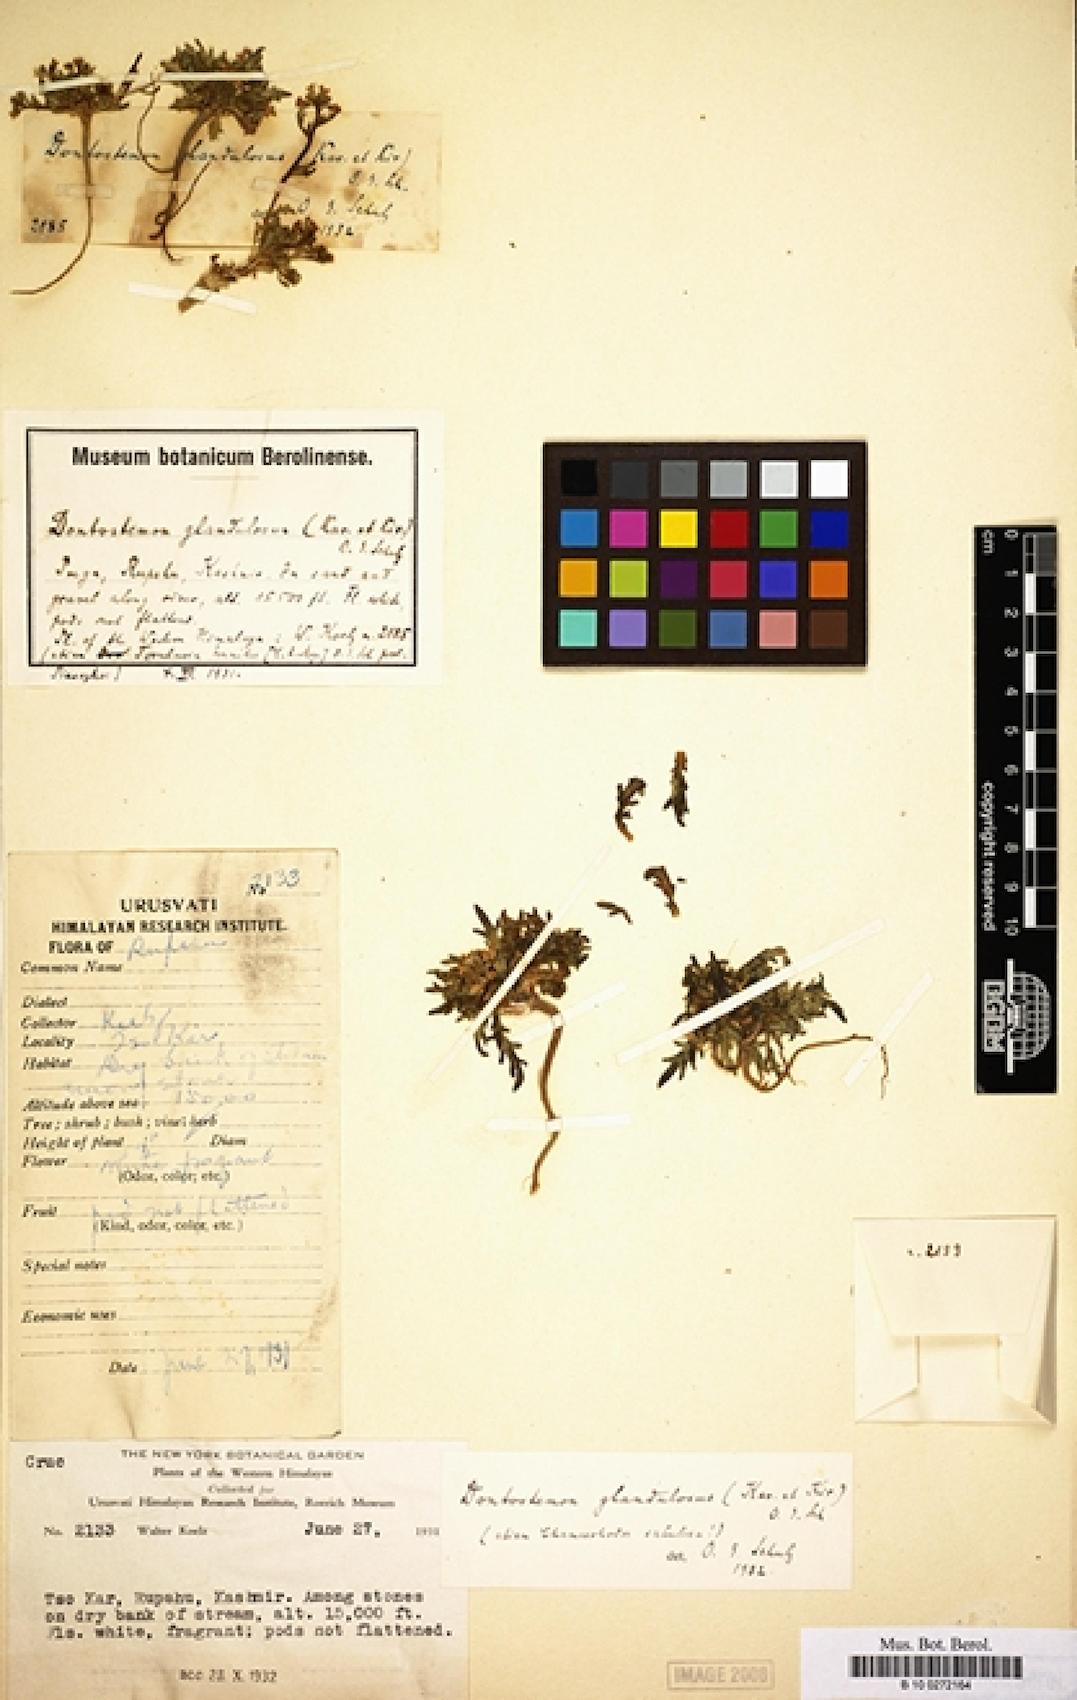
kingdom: Plantae
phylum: Tracheophyta
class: Magnoliopsida
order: Brassicales
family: Brassicaceae
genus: Dontostemon
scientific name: Dontostemon glandulosus
